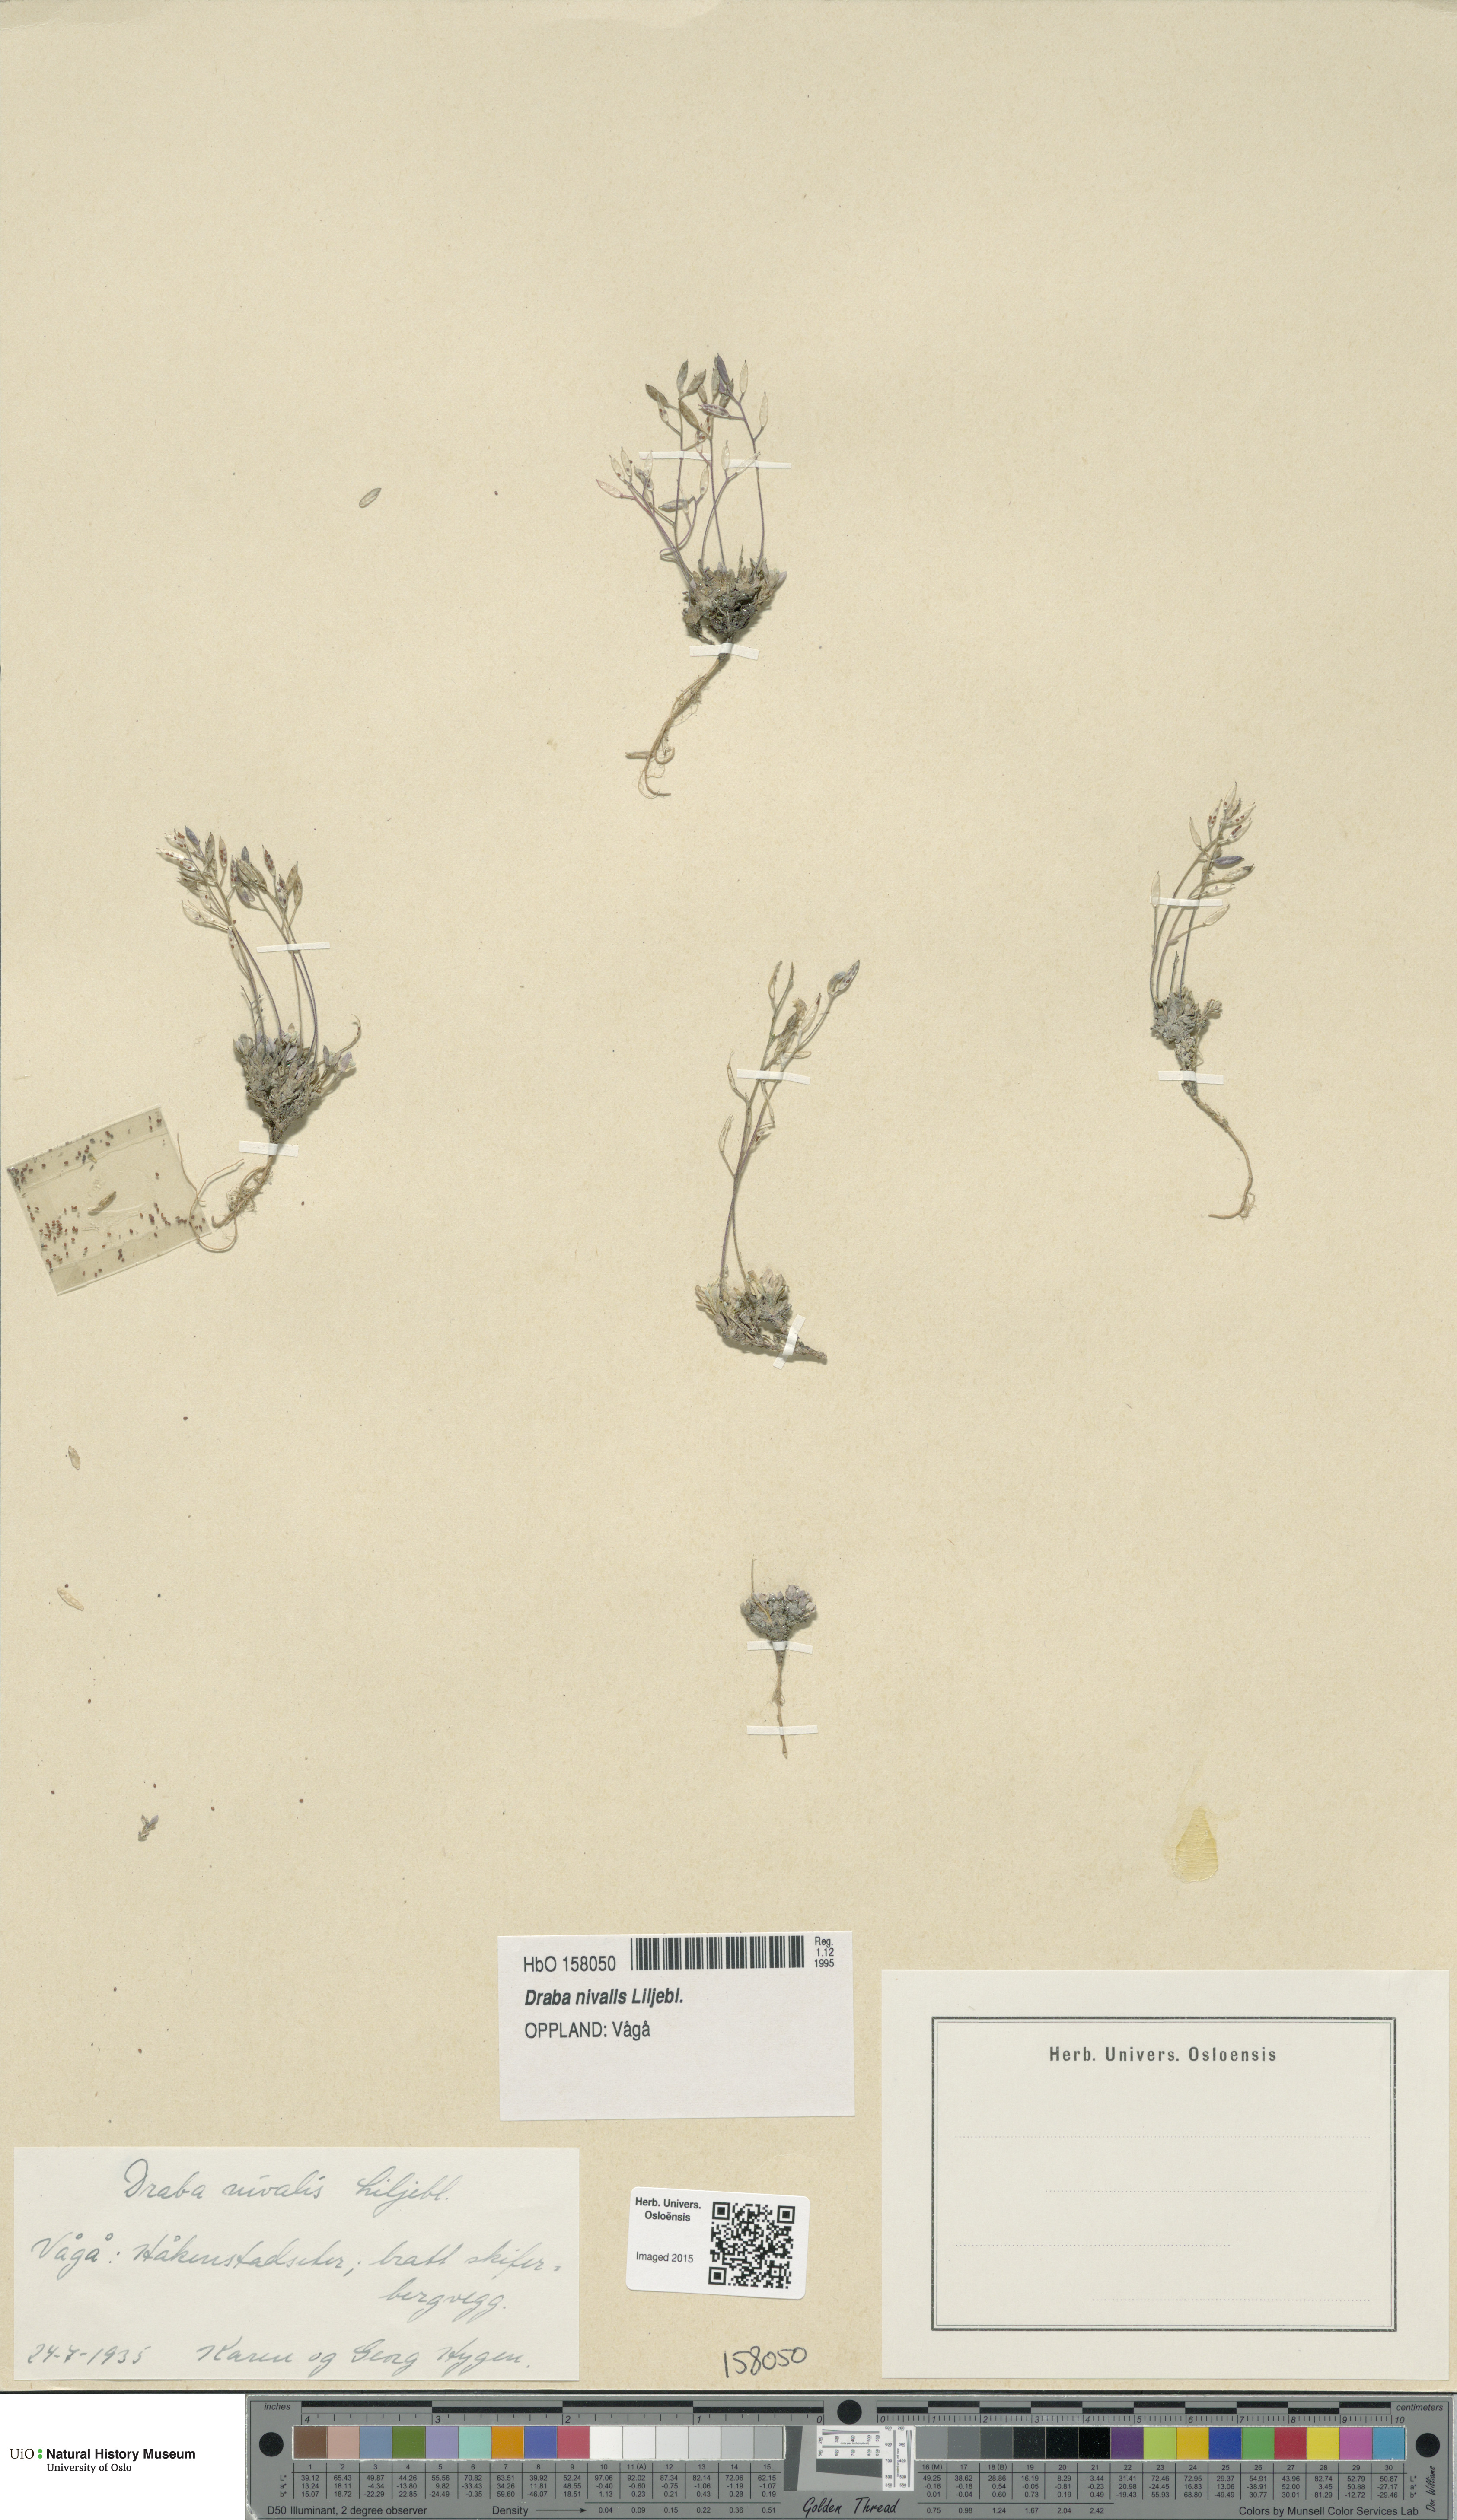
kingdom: Plantae
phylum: Tracheophyta
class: Magnoliopsida
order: Brassicales
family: Brassicaceae
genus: Draba
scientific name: Draba nivalis
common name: Snow draba
